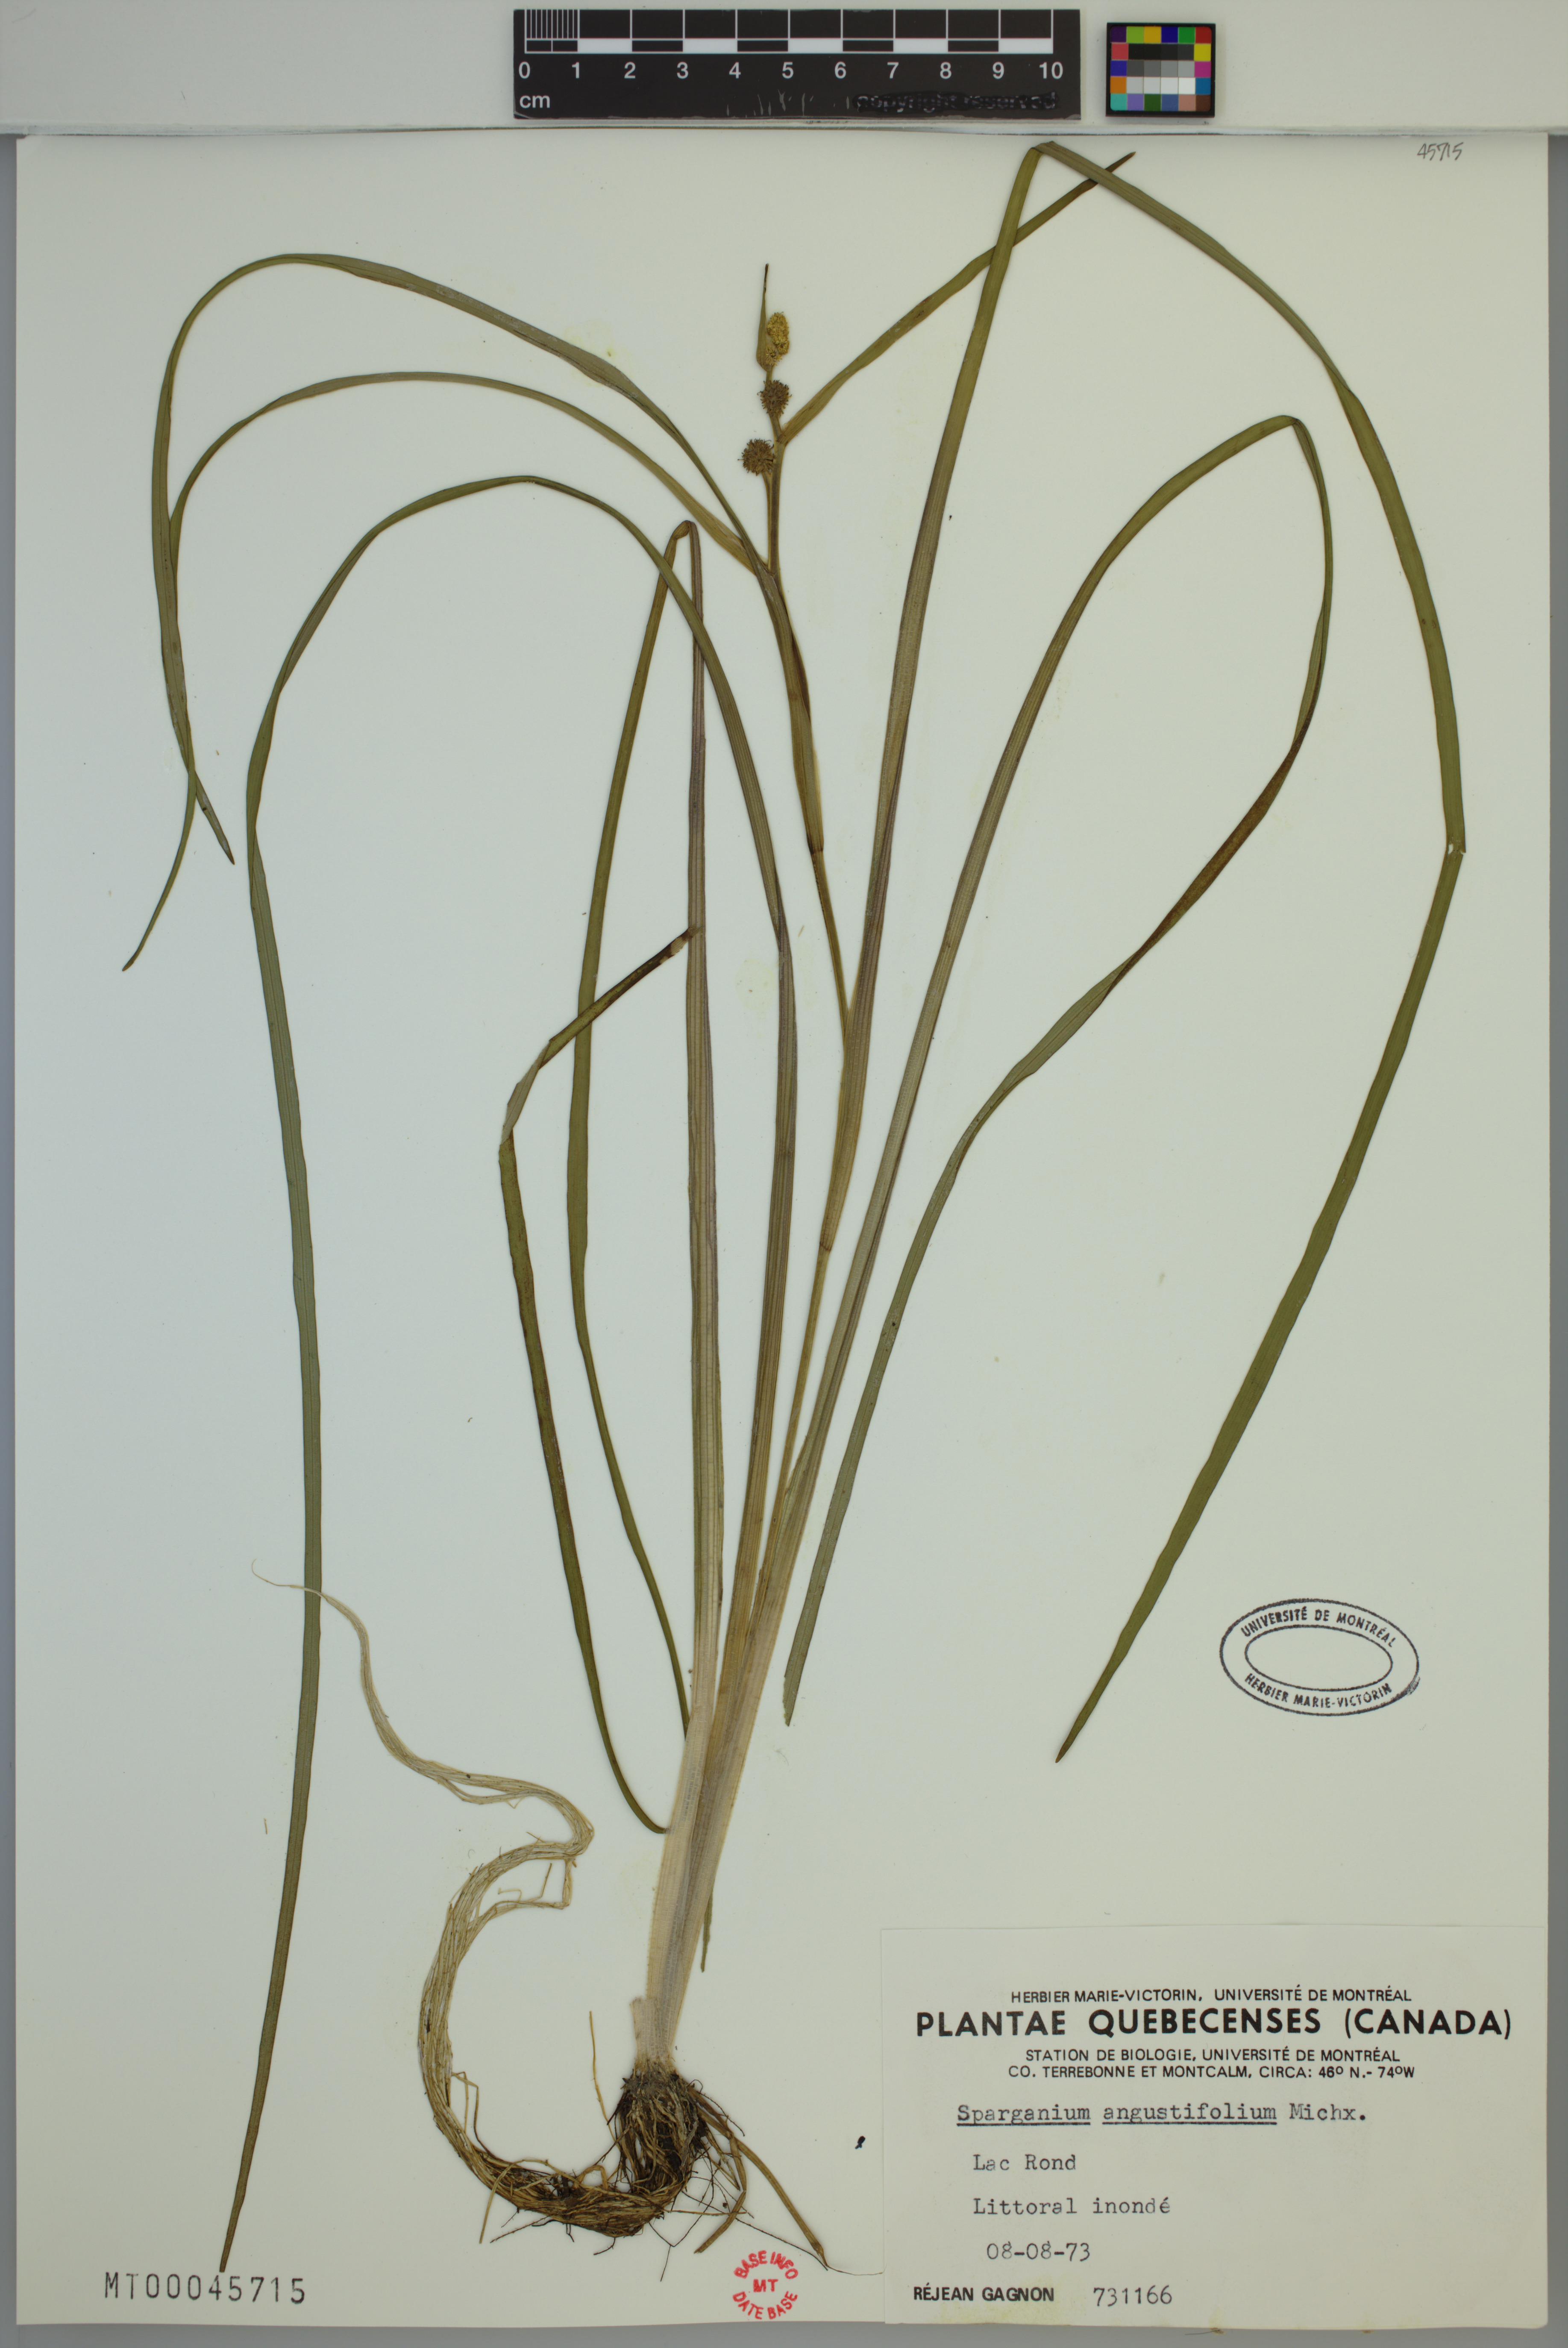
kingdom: Plantae
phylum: Tracheophyta
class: Liliopsida
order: Poales
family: Typhaceae
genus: Sparganium
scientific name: Sparganium angustifolium
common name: Floating bur-reed
